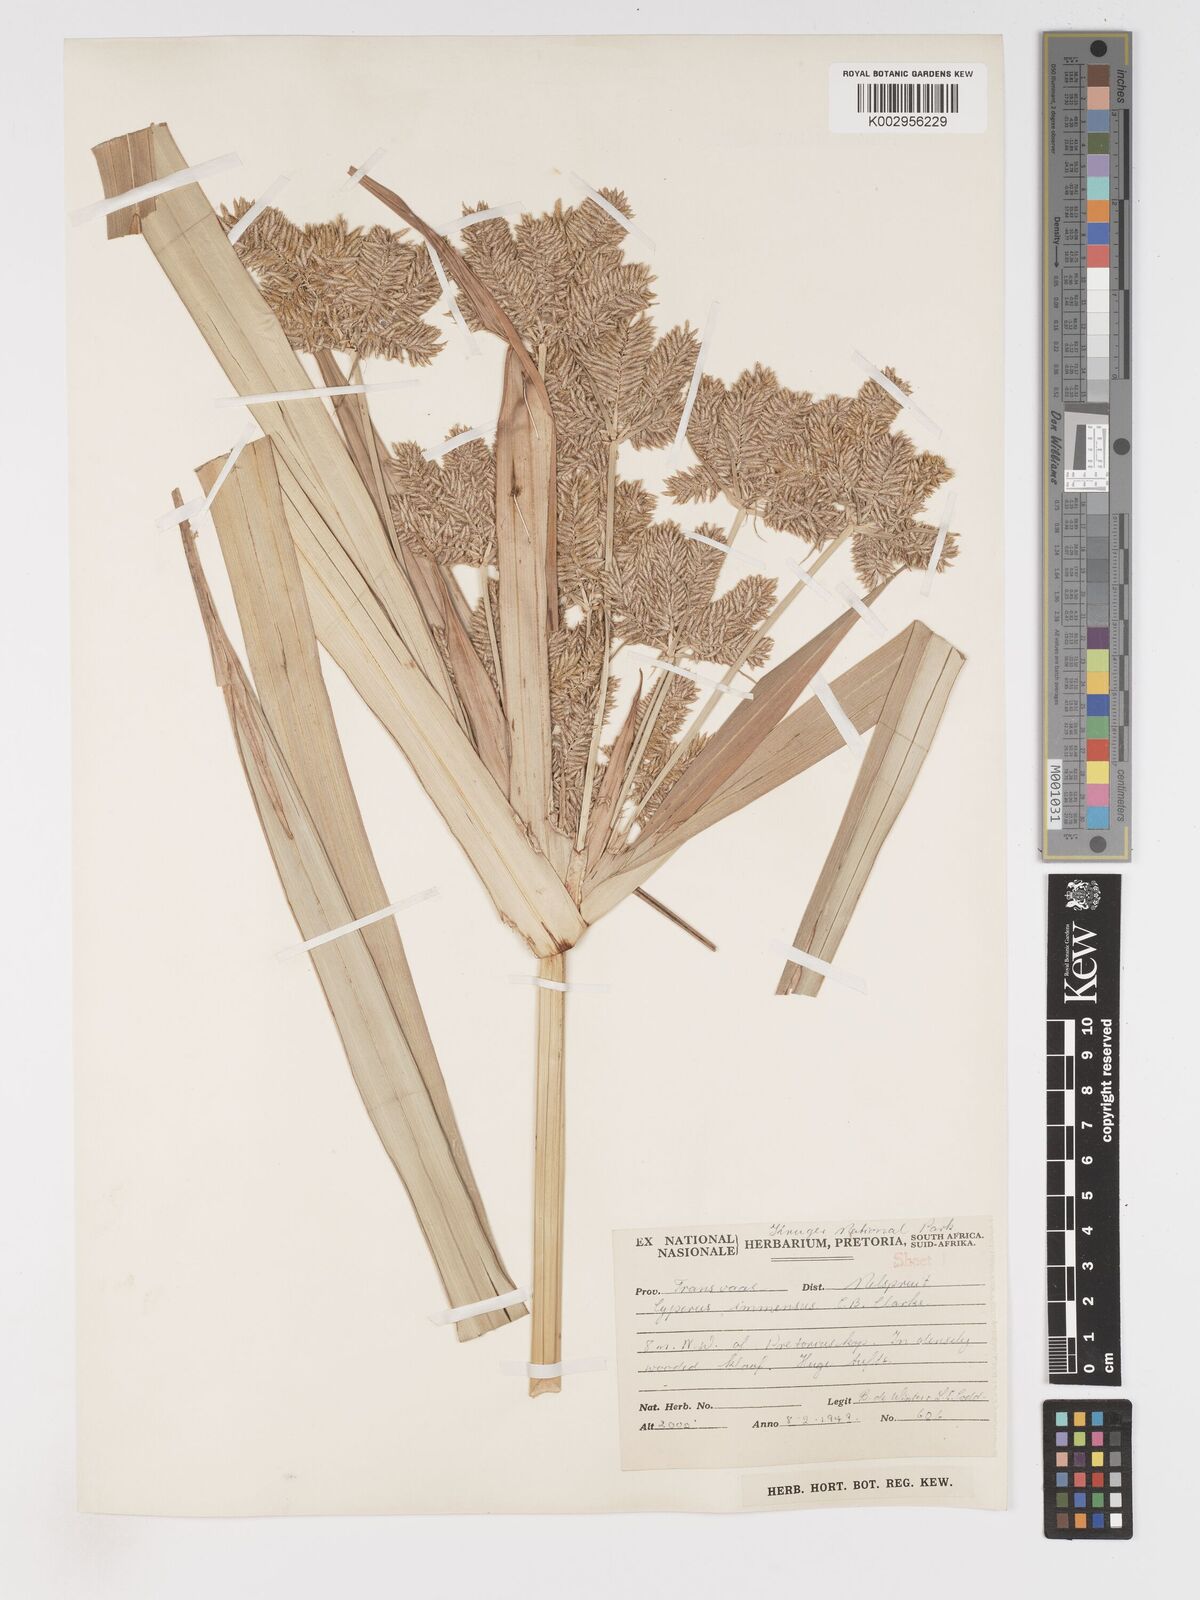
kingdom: Plantae
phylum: Tracheophyta
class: Liliopsida
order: Poales
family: Cyperaceae
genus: Cyperus
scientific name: Cyperus dives
